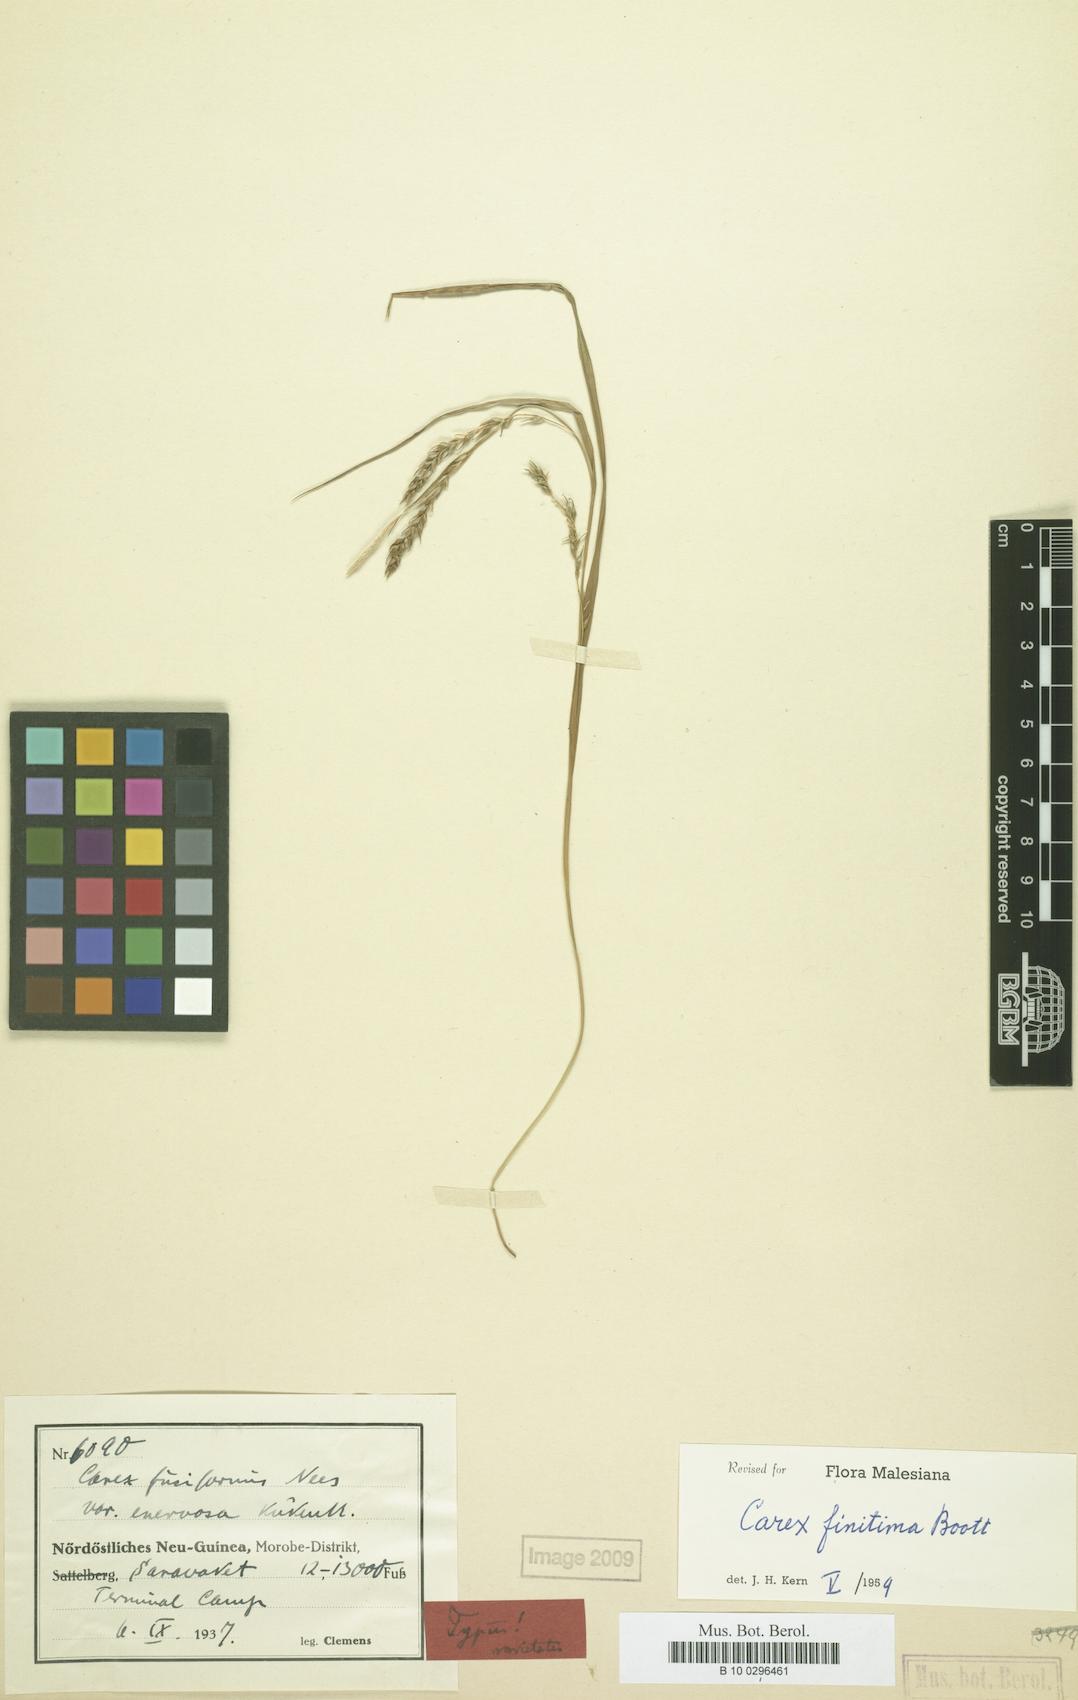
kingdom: Plantae
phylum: Tracheophyta
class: Liliopsida
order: Poales
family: Cyperaceae
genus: Carex
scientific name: Carex finitima
